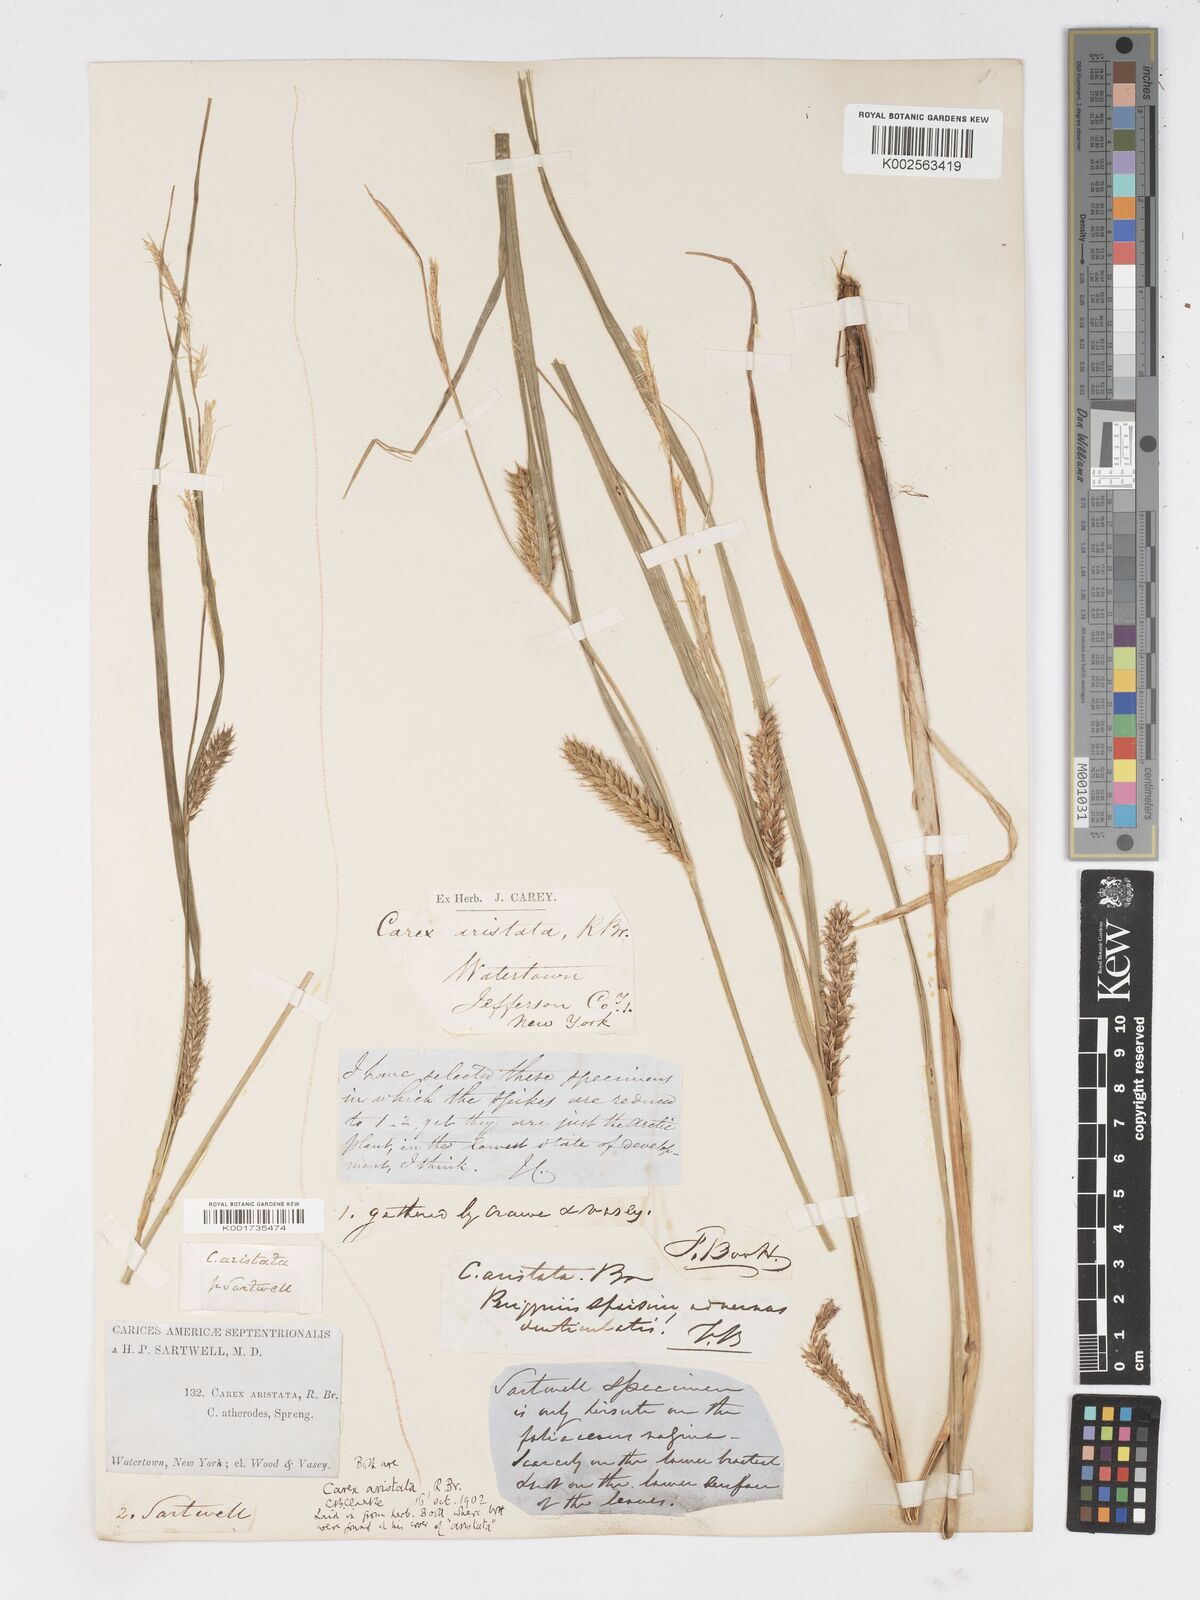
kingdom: Plantae
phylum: Tracheophyta
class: Liliopsida
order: Poales
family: Cyperaceae
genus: Carex
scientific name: Carex atherodes
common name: Wheat sedge
